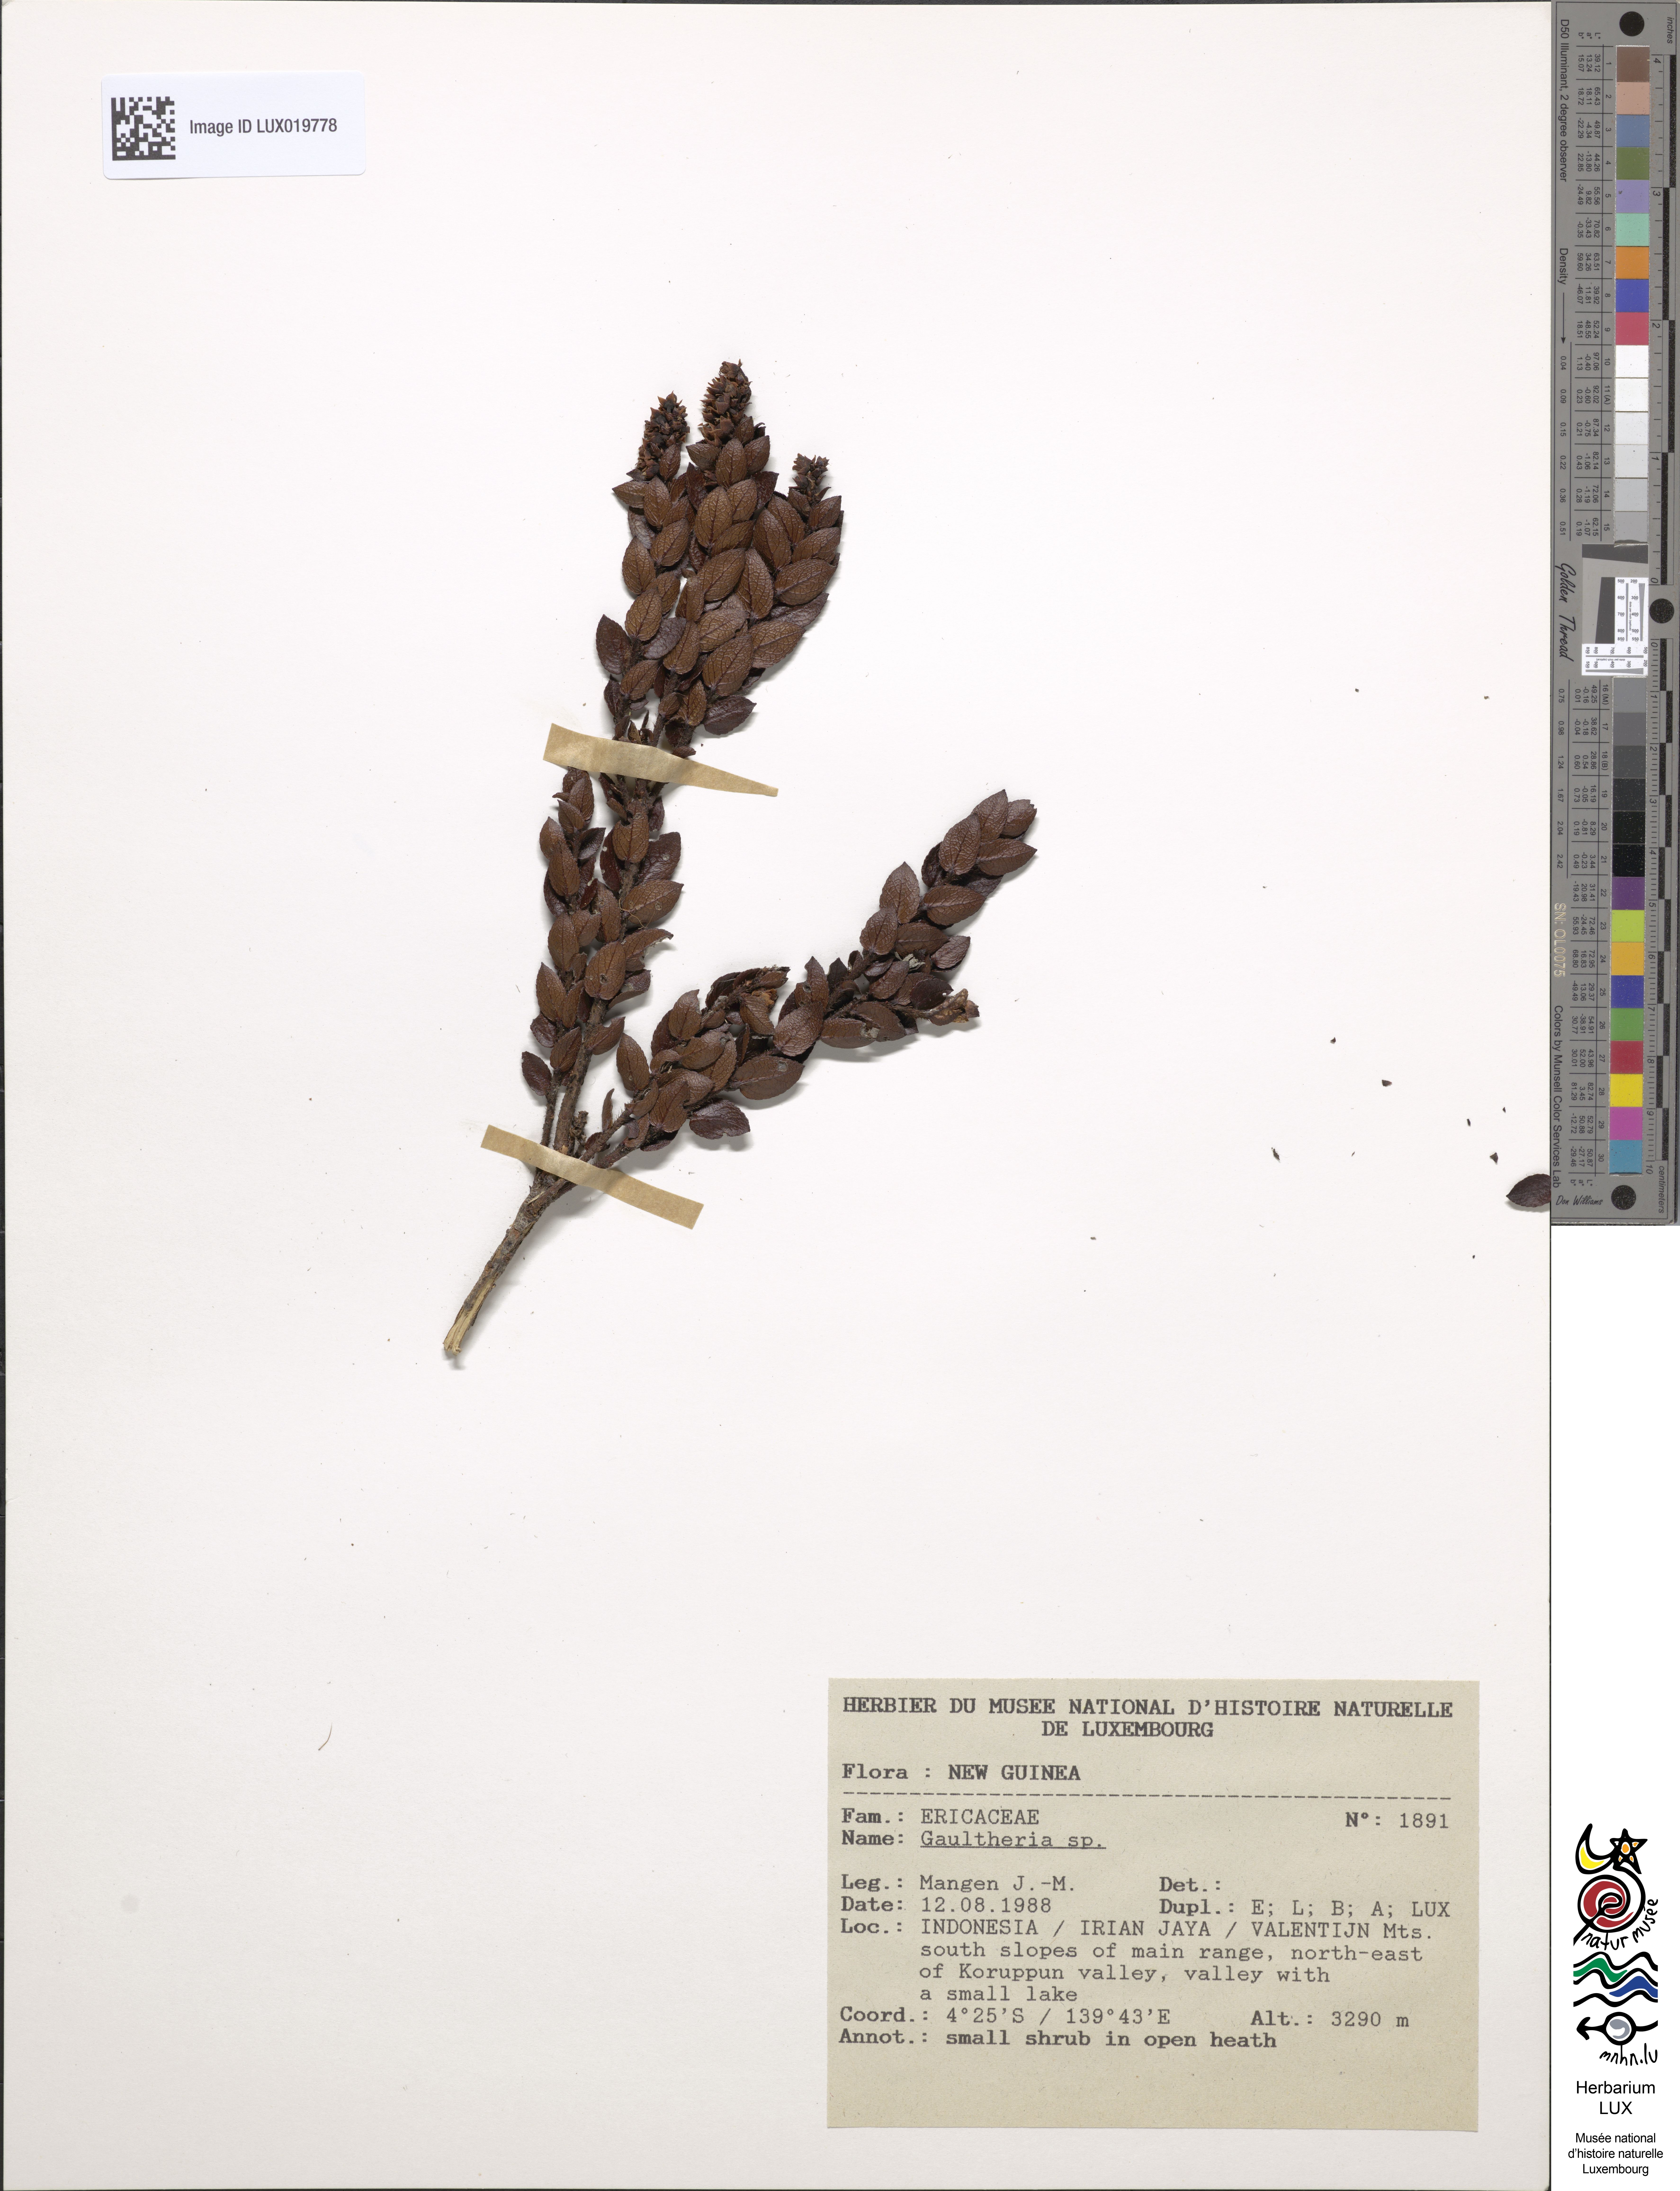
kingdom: Plantae
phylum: Tracheophyta
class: Magnoliopsida
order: Ericales
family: Ericaceae
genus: Gaultheria
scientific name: Gaultheria
